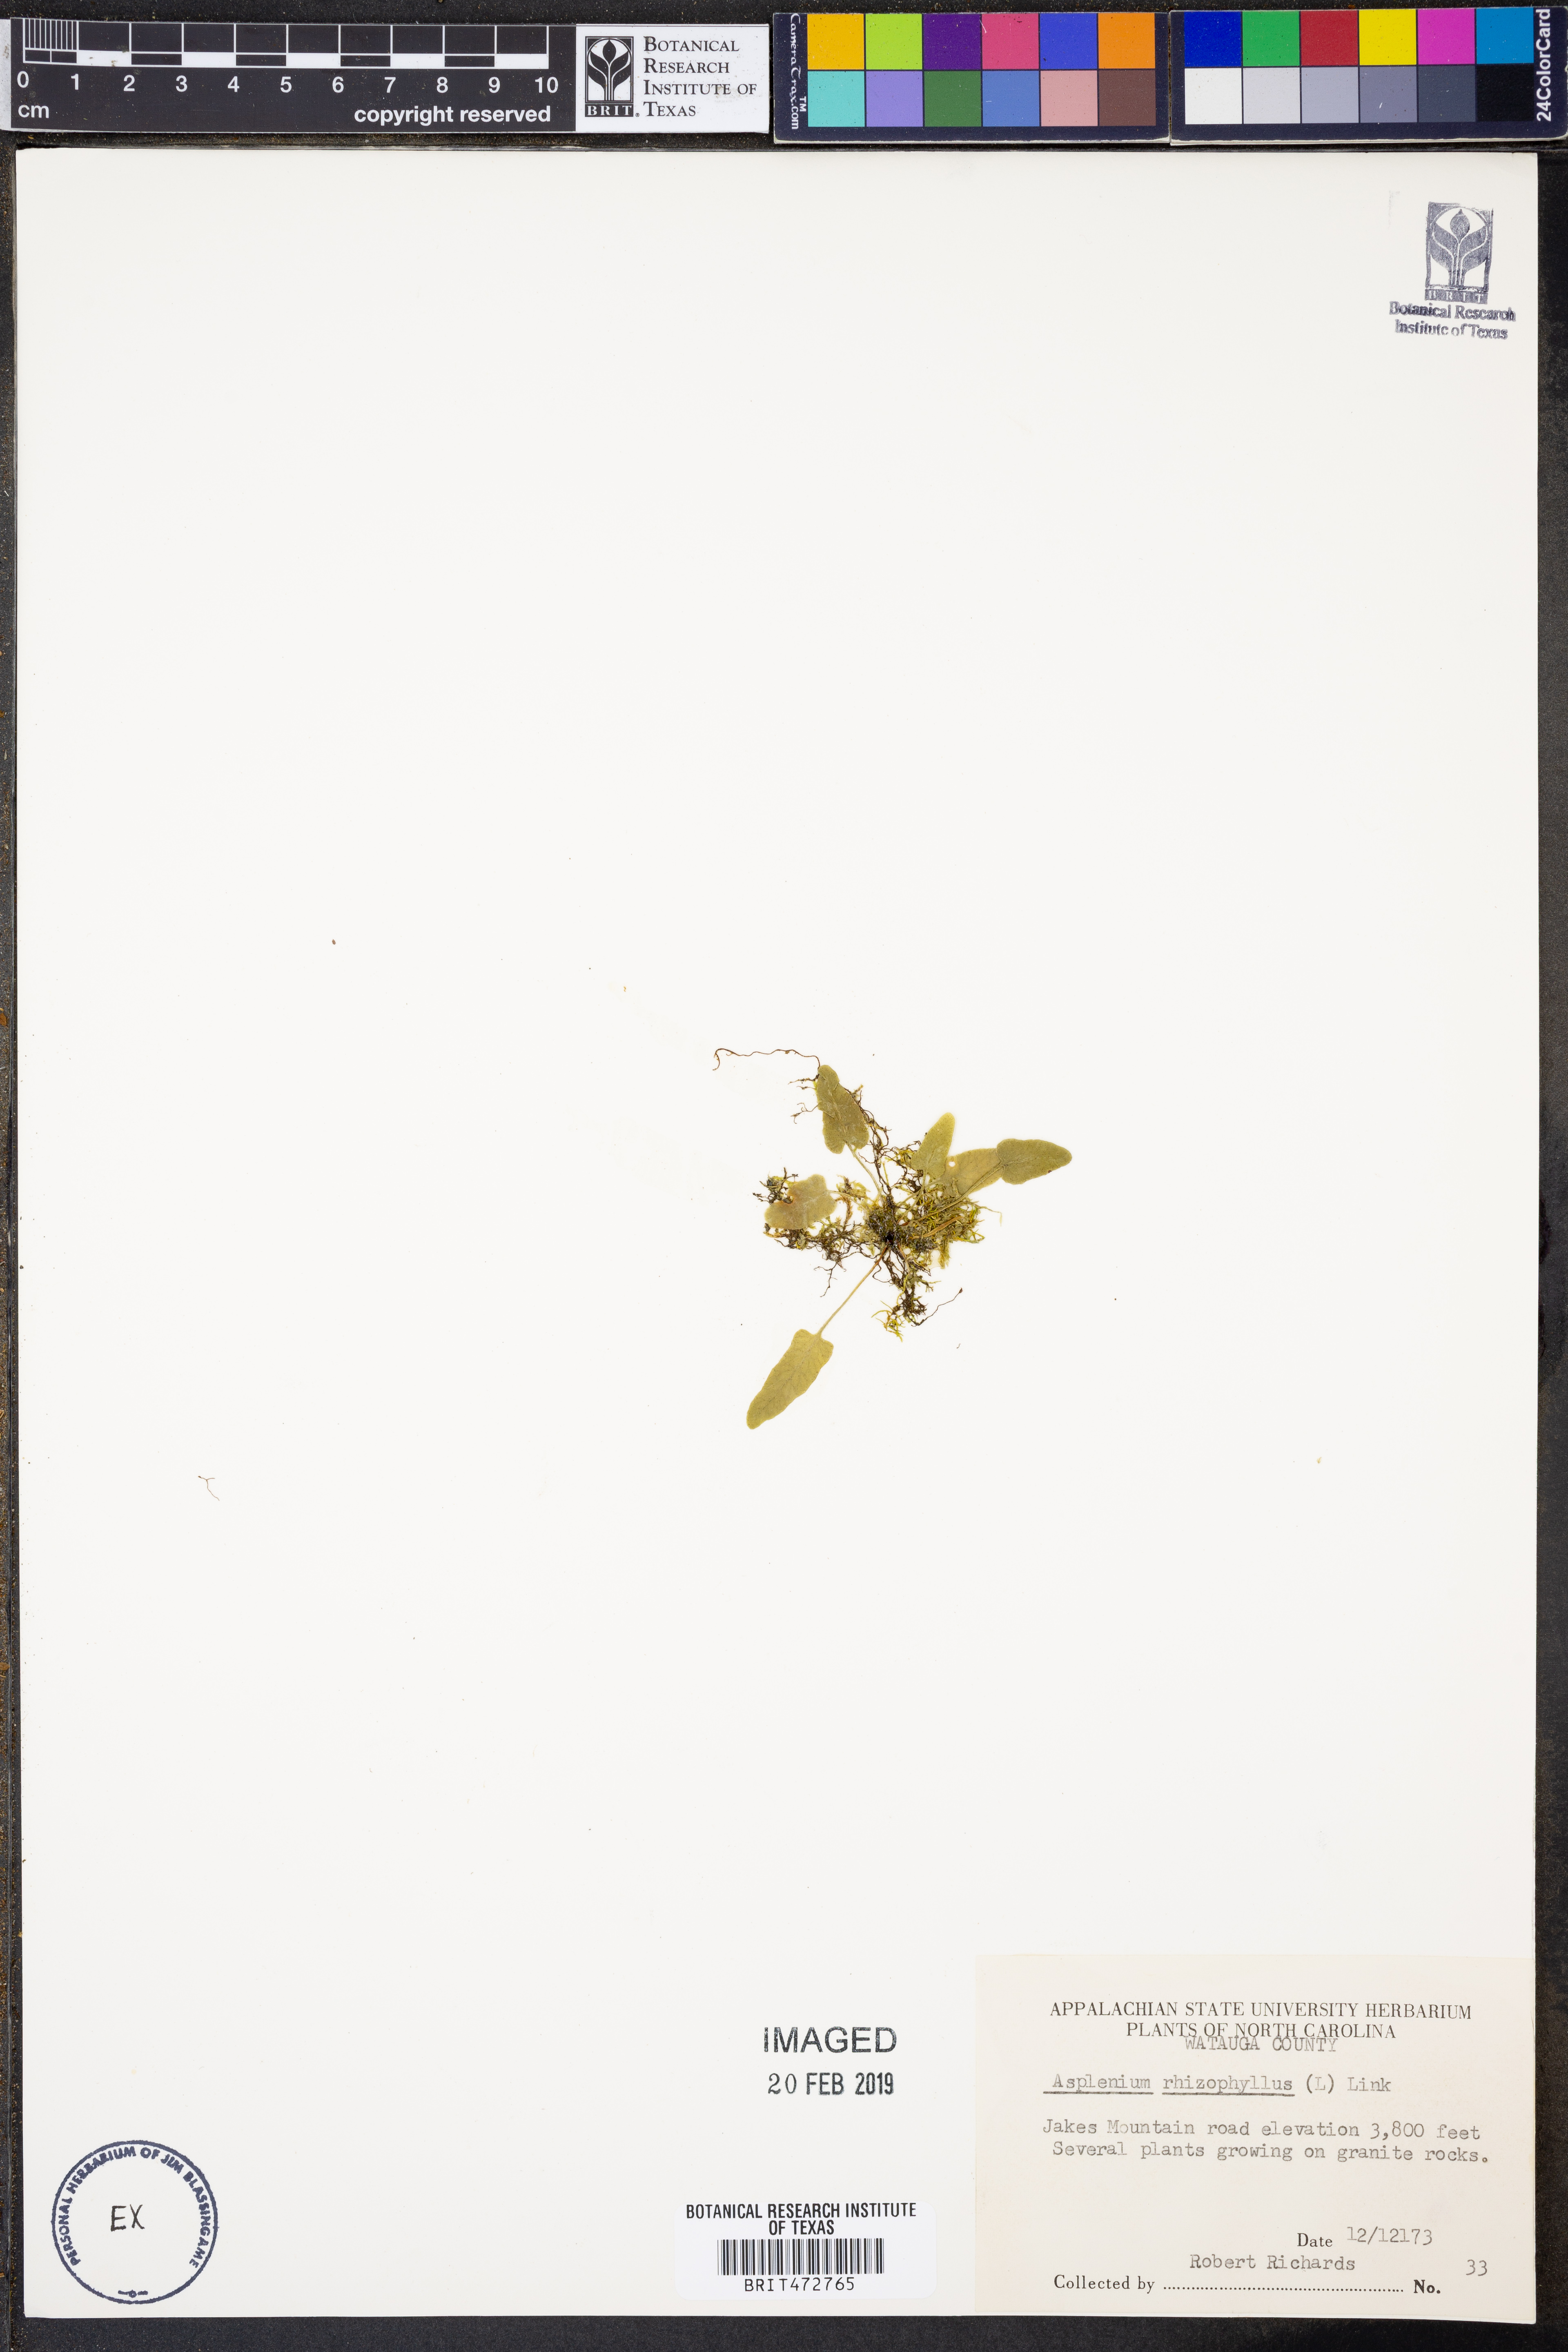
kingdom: Plantae
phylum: Tracheophyta
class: Polypodiopsida
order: Polypodiales
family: Aspleniaceae
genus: Asplenium
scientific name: Asplenium rhizophyllum
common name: Walking fern
